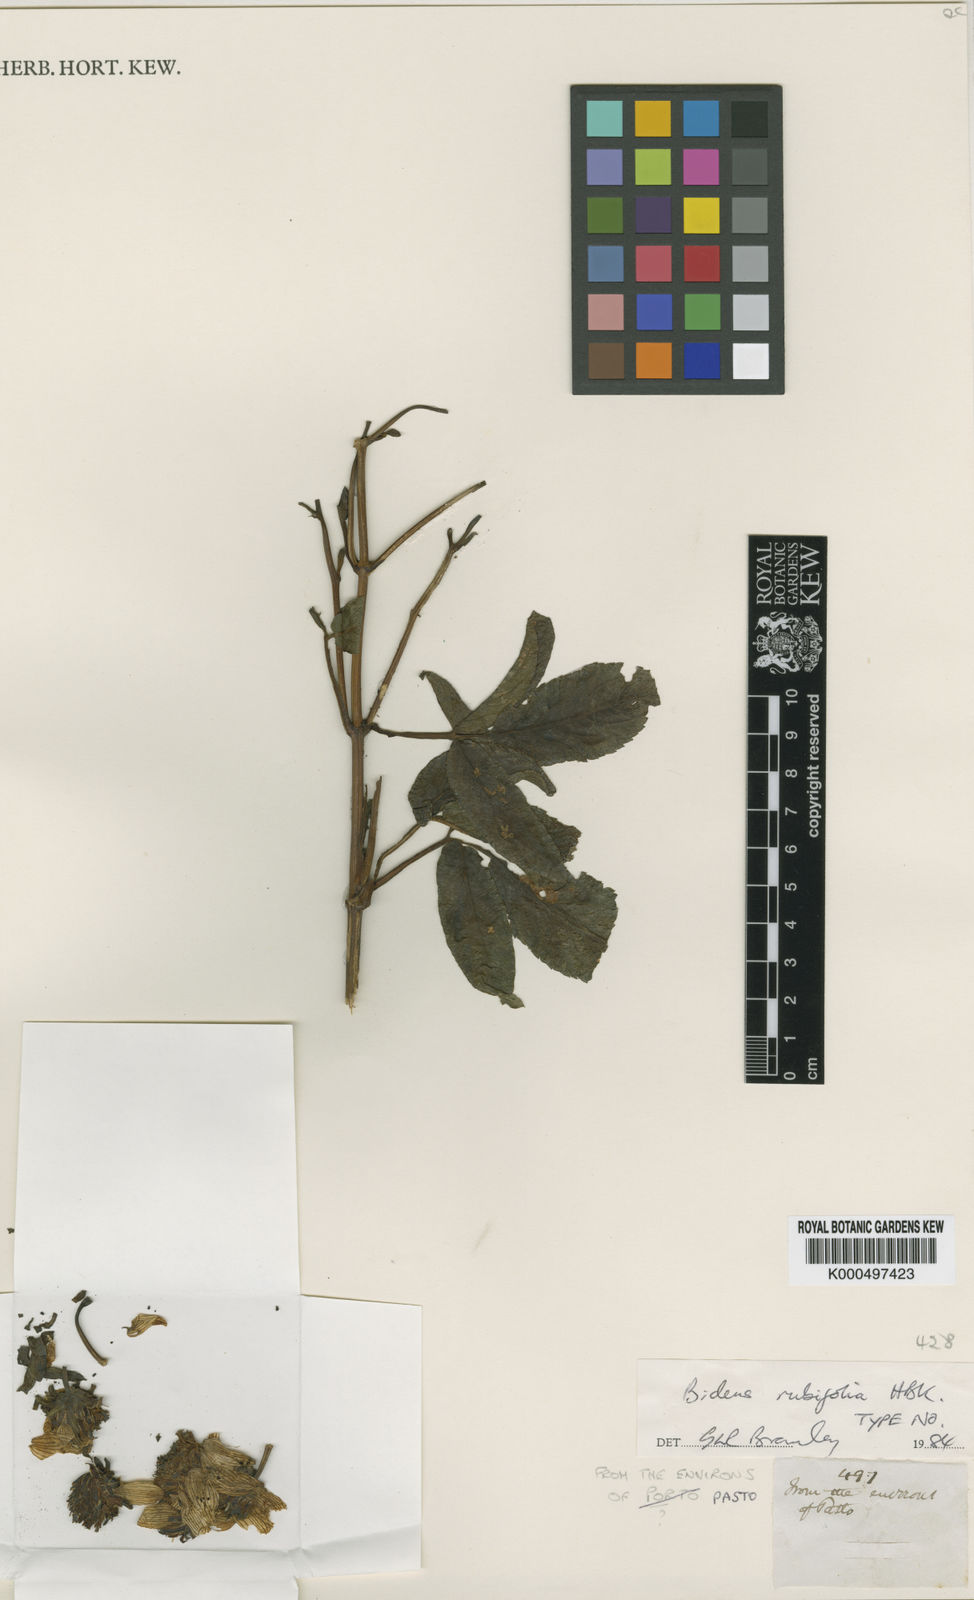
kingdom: Plantae
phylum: Tracheophyta
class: Magnoliopsida
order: Asterales
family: Asteraceae
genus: Bidens
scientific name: Bidens rubifolia
